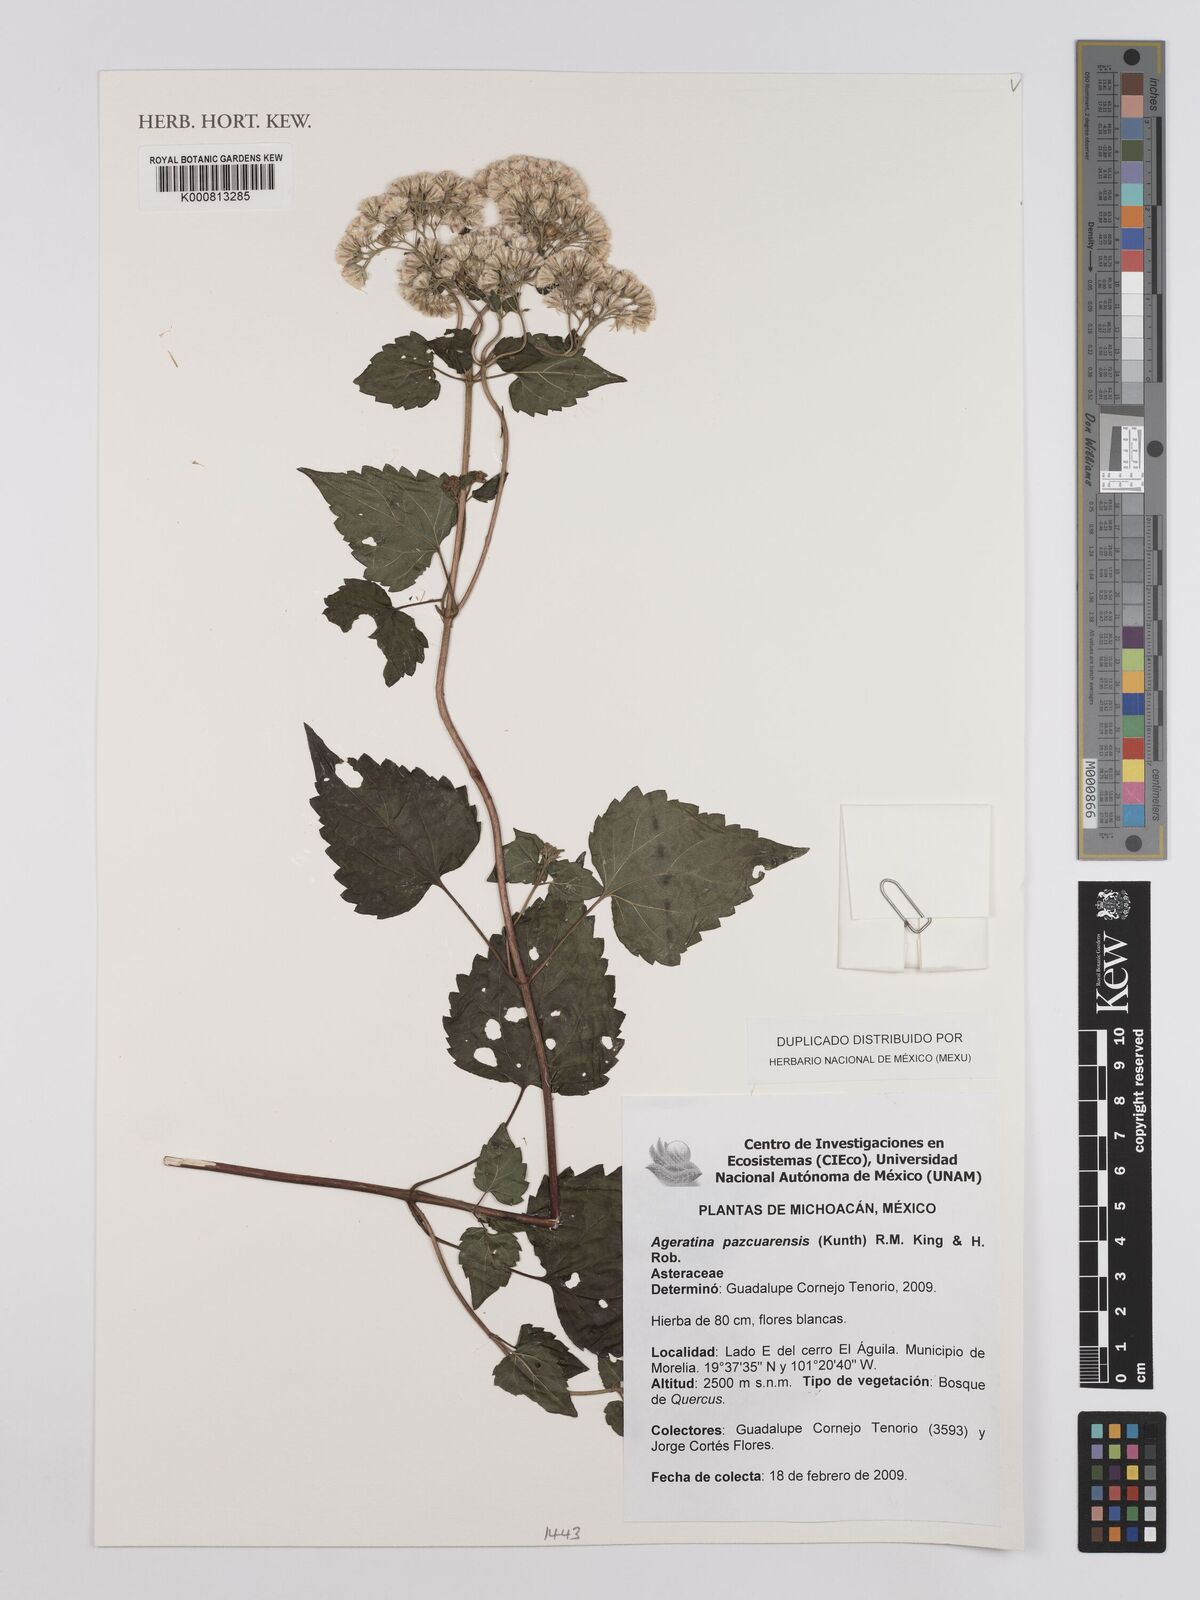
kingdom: Plantae
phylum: Tracheophyta
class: Magnoliopsida
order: Asterales
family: Asteraceae
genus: Ageratina
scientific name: Ageratina pazcuarensis
